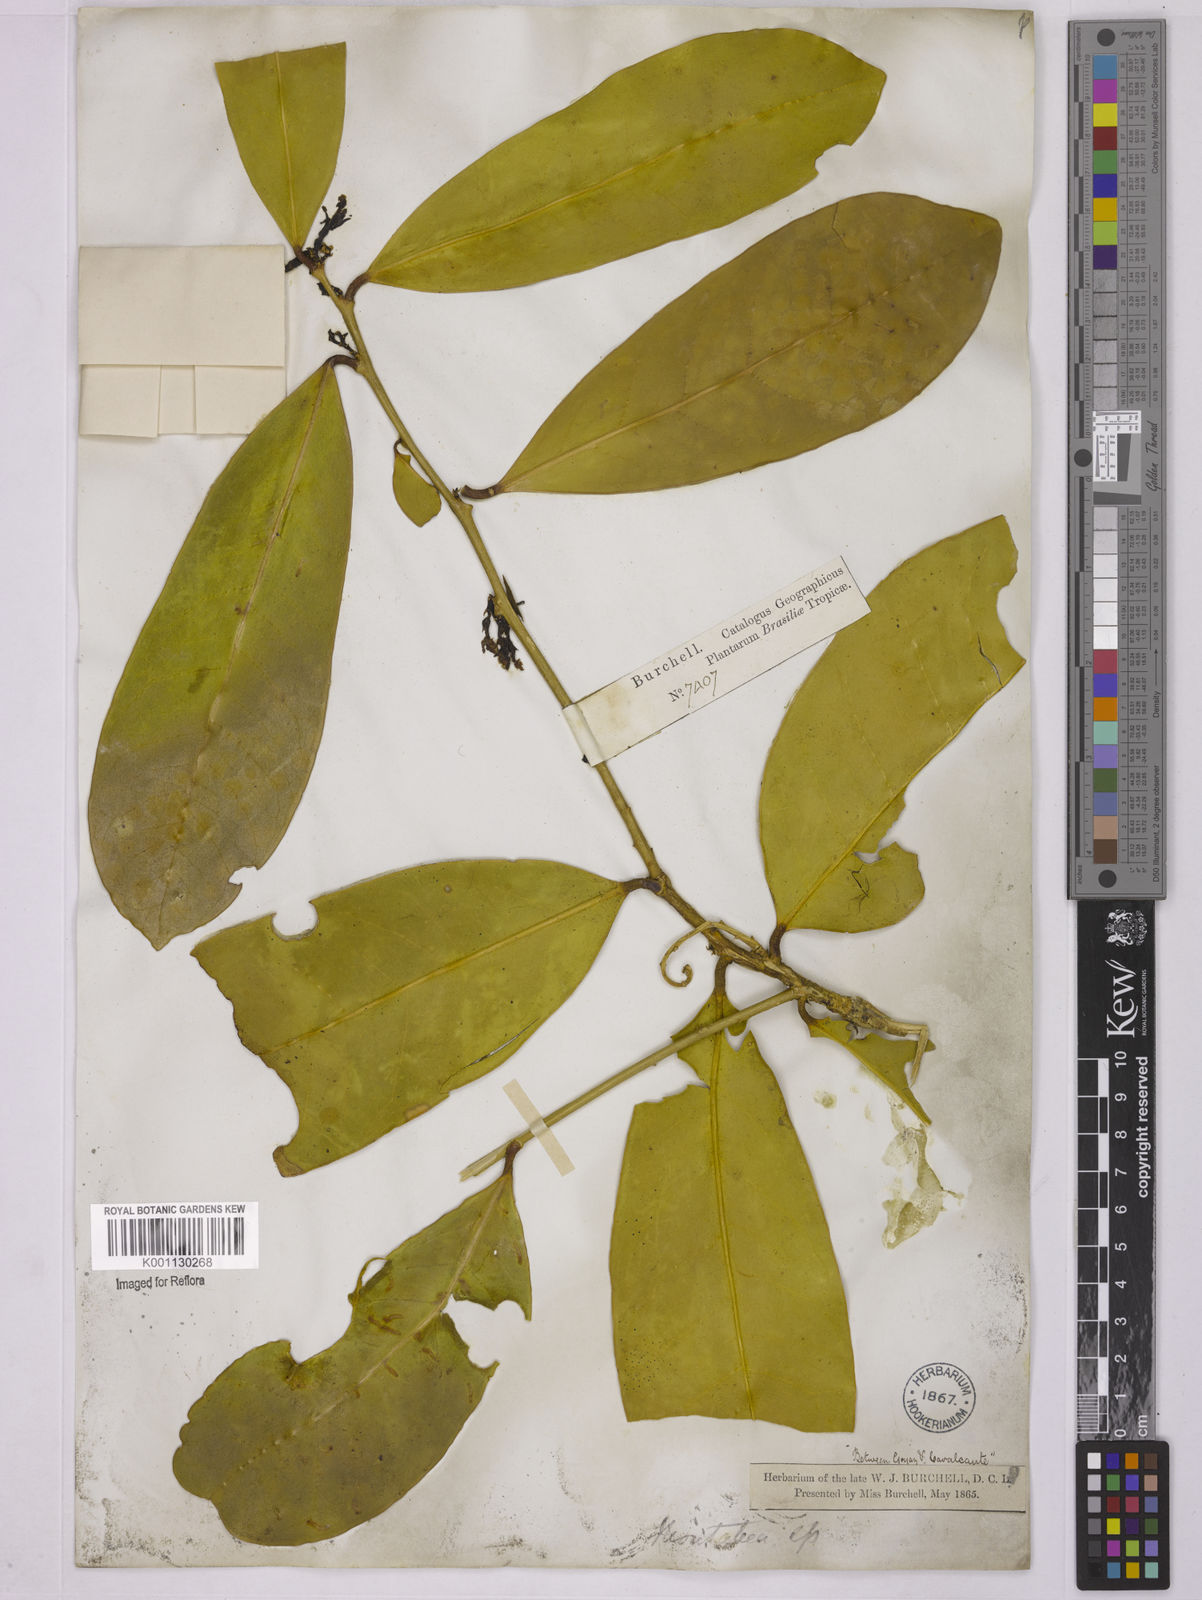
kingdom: Plantae
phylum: Tracheophyta
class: Magnoliopsida
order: Fabales
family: Polygalaceae
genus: Moutabea
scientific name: Moutabea aculeata
